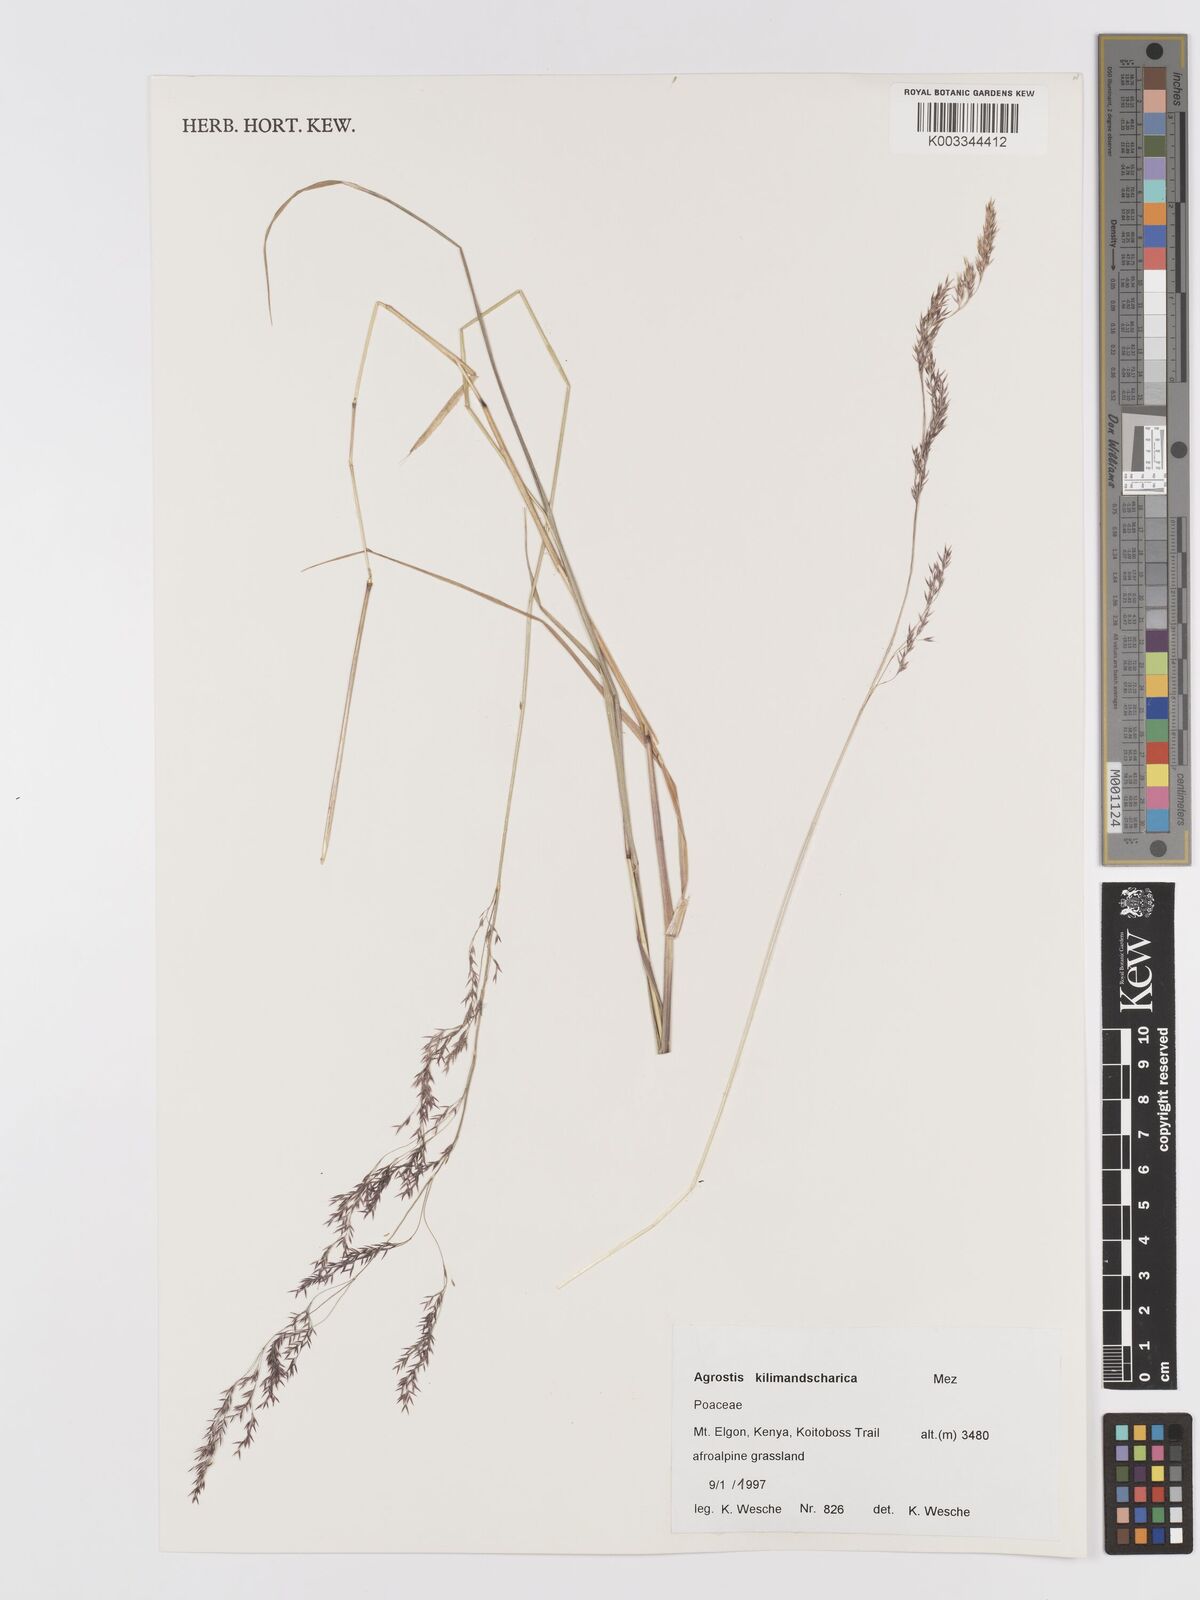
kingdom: Plantae
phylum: Tracheophyta
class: Liliopsida
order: Poales
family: Poaceae
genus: Agrostis
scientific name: Agrostis kilimandscharica
